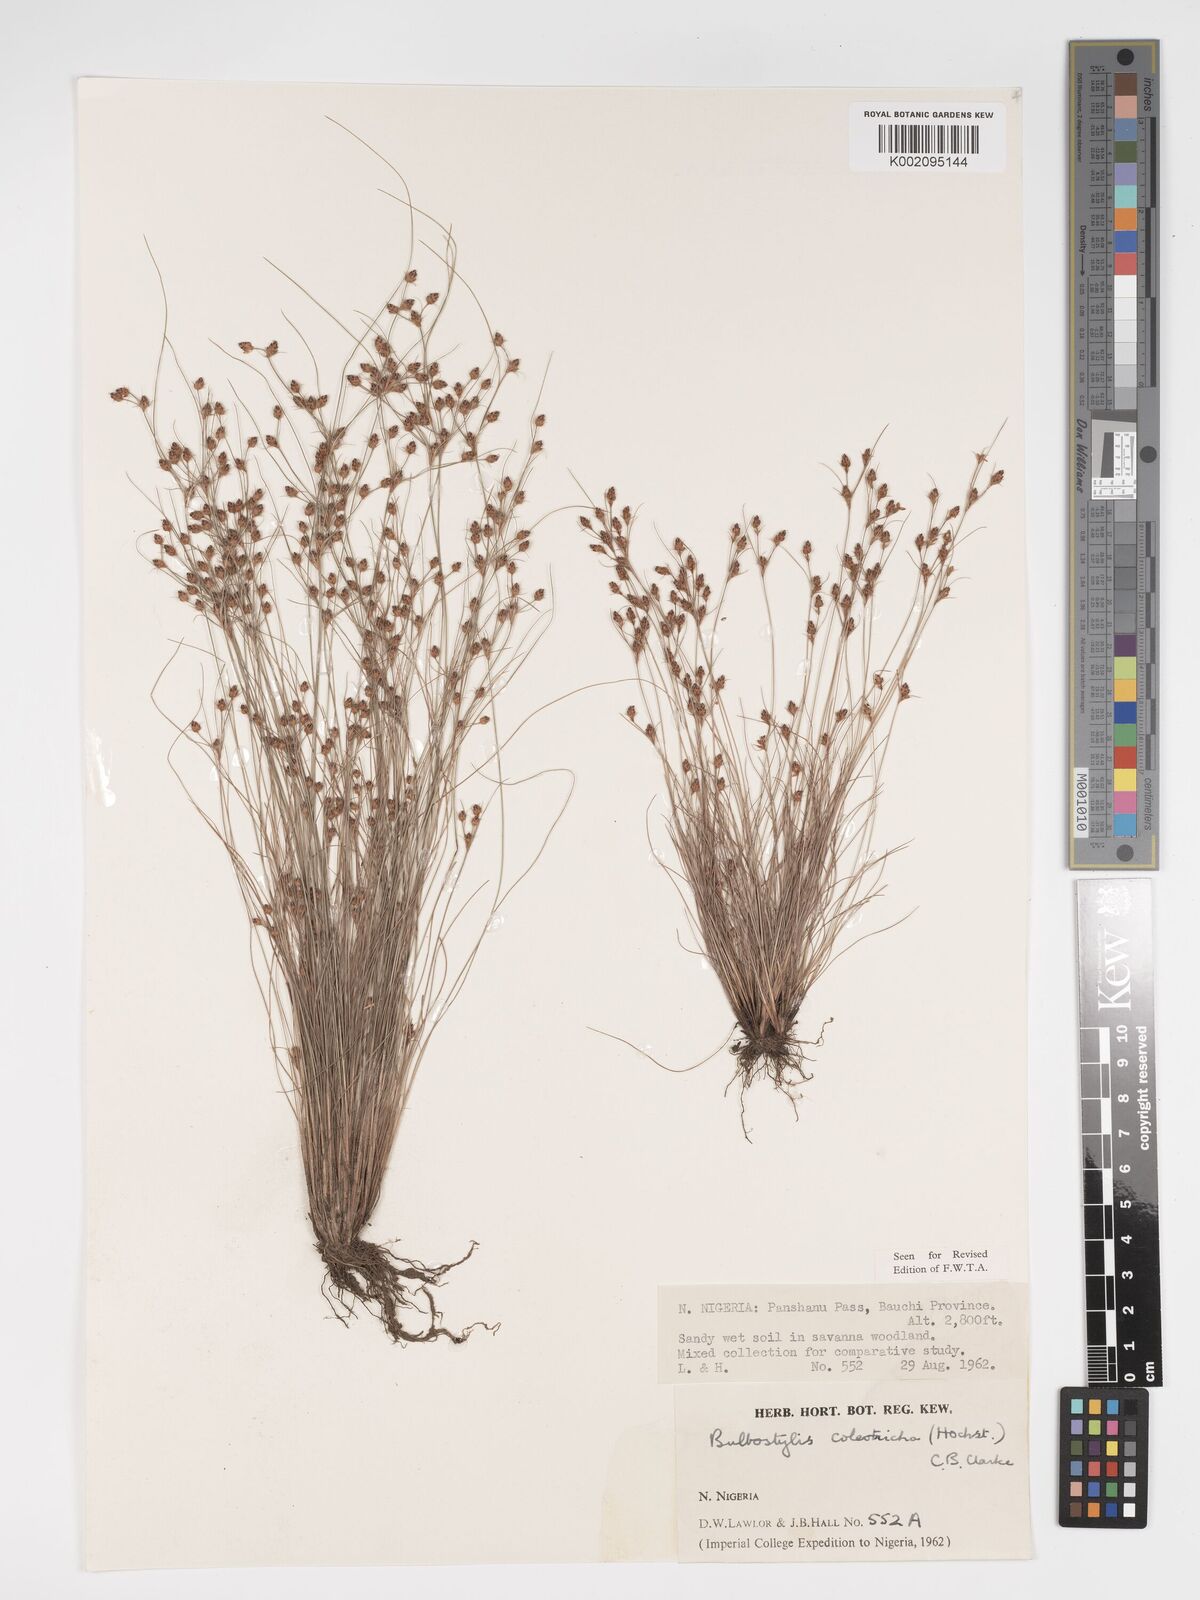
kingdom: Plantae
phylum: Tracheophyta
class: Liliopsida
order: Poales
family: Cyperaceae
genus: Bulbostylis
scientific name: Bulbostylis coleotricha
